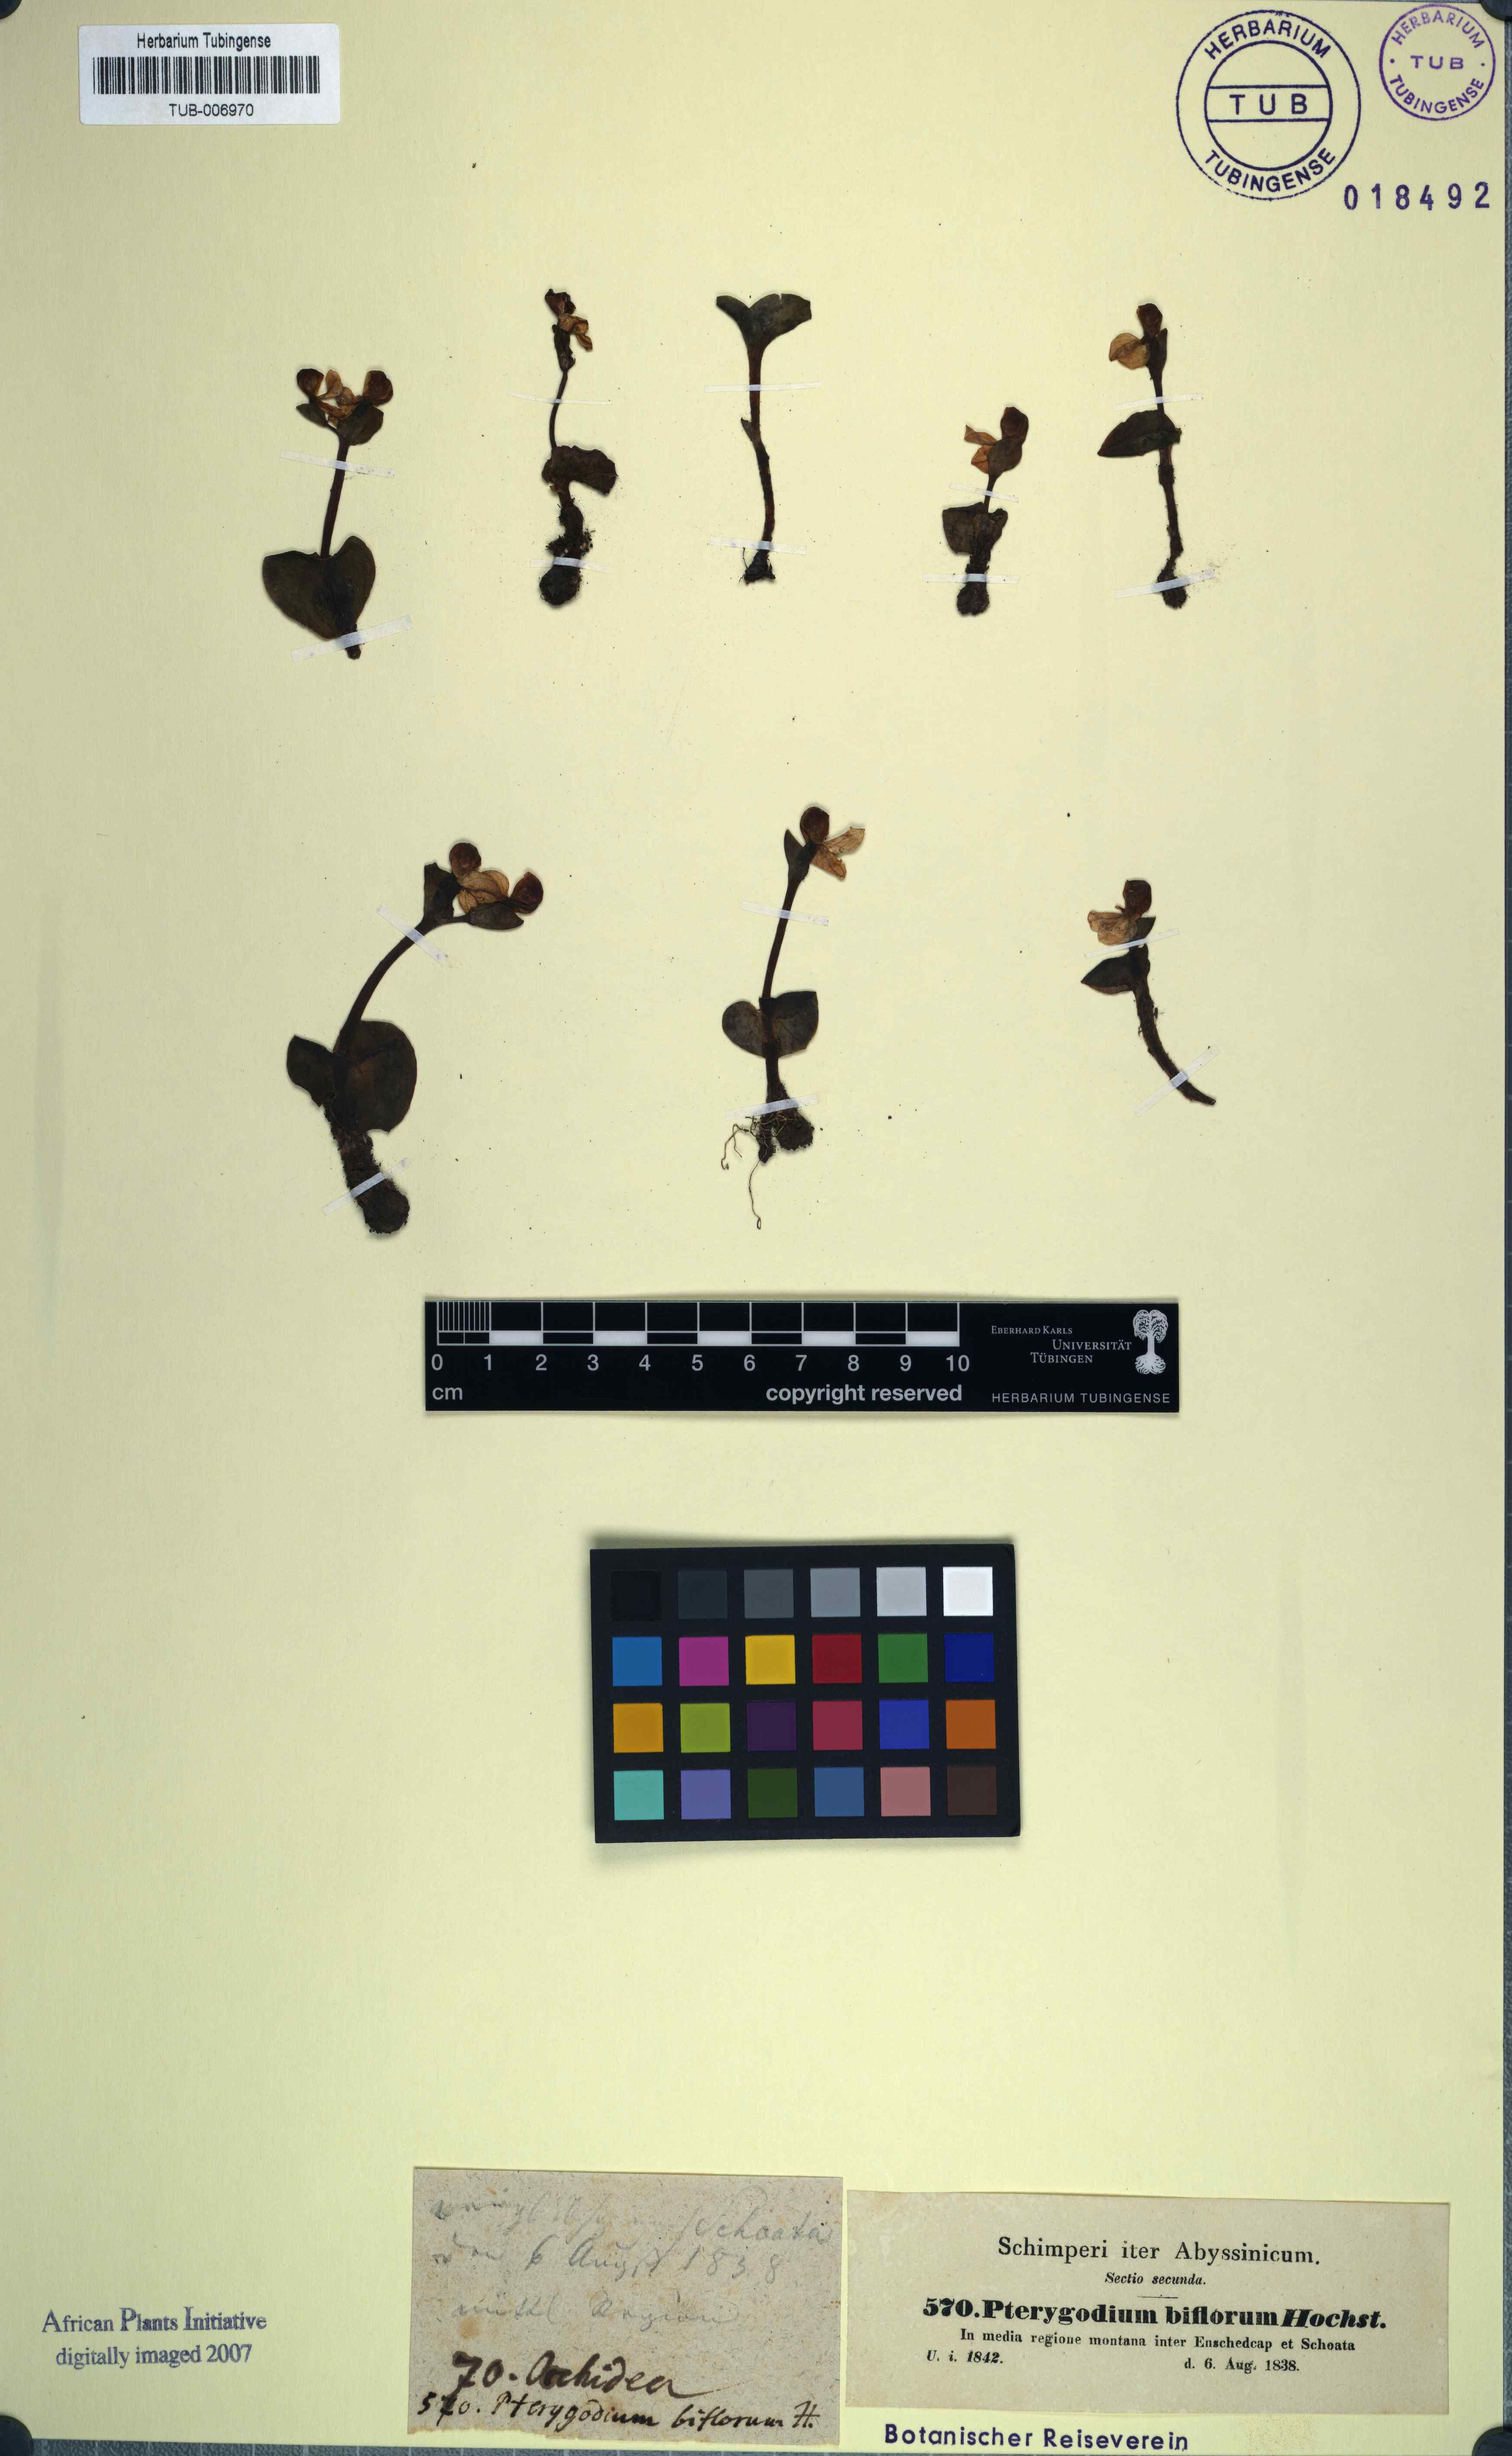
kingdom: Plantae
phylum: Tracheophyta
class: Liliopsida
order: Asparagales
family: Orchidaceae
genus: Disperis
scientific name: Disperis crassicaulis
